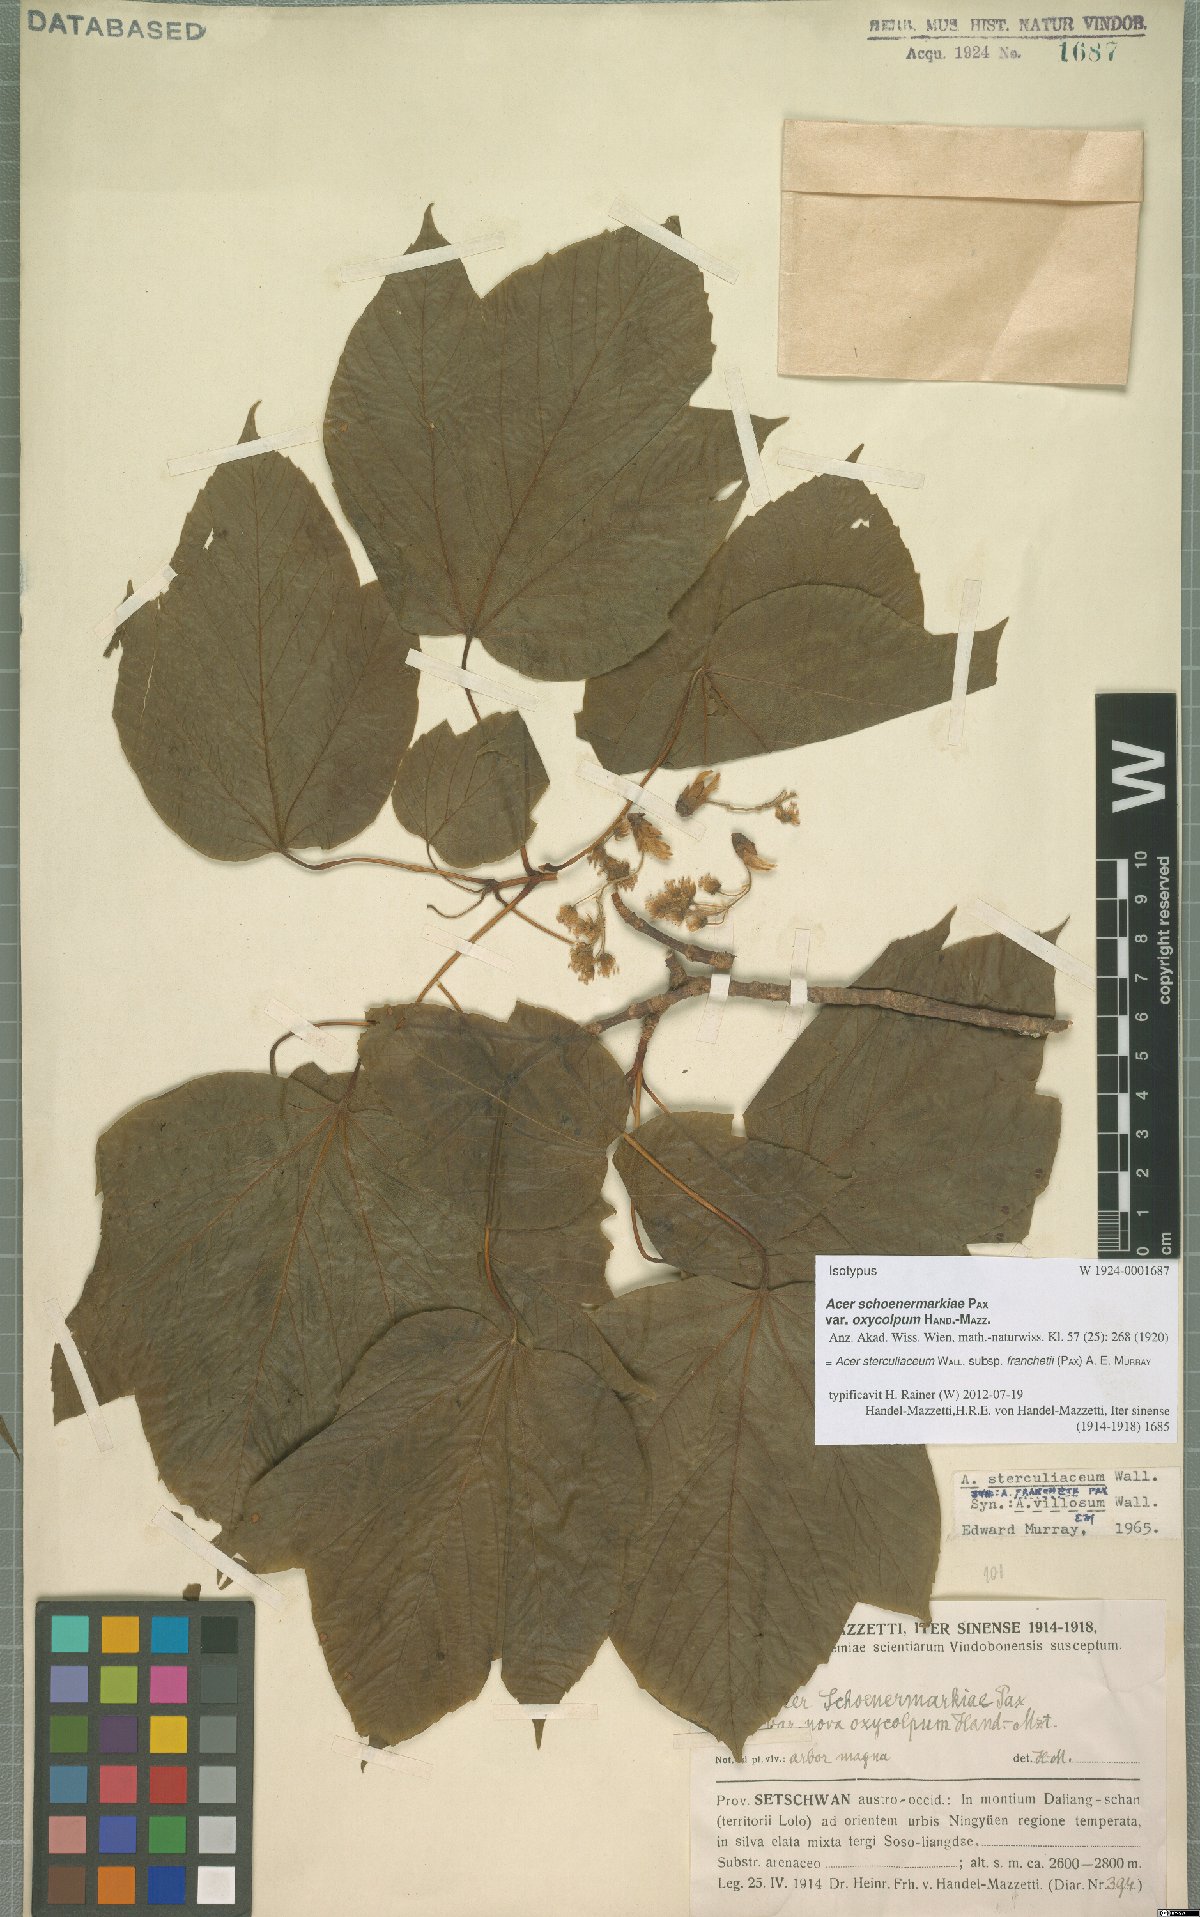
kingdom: Plantae
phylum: Tracheophyta
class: Magnoliopsida
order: Sapindales
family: Sapindaceae
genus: Acer
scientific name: Acer sterculiaceum
